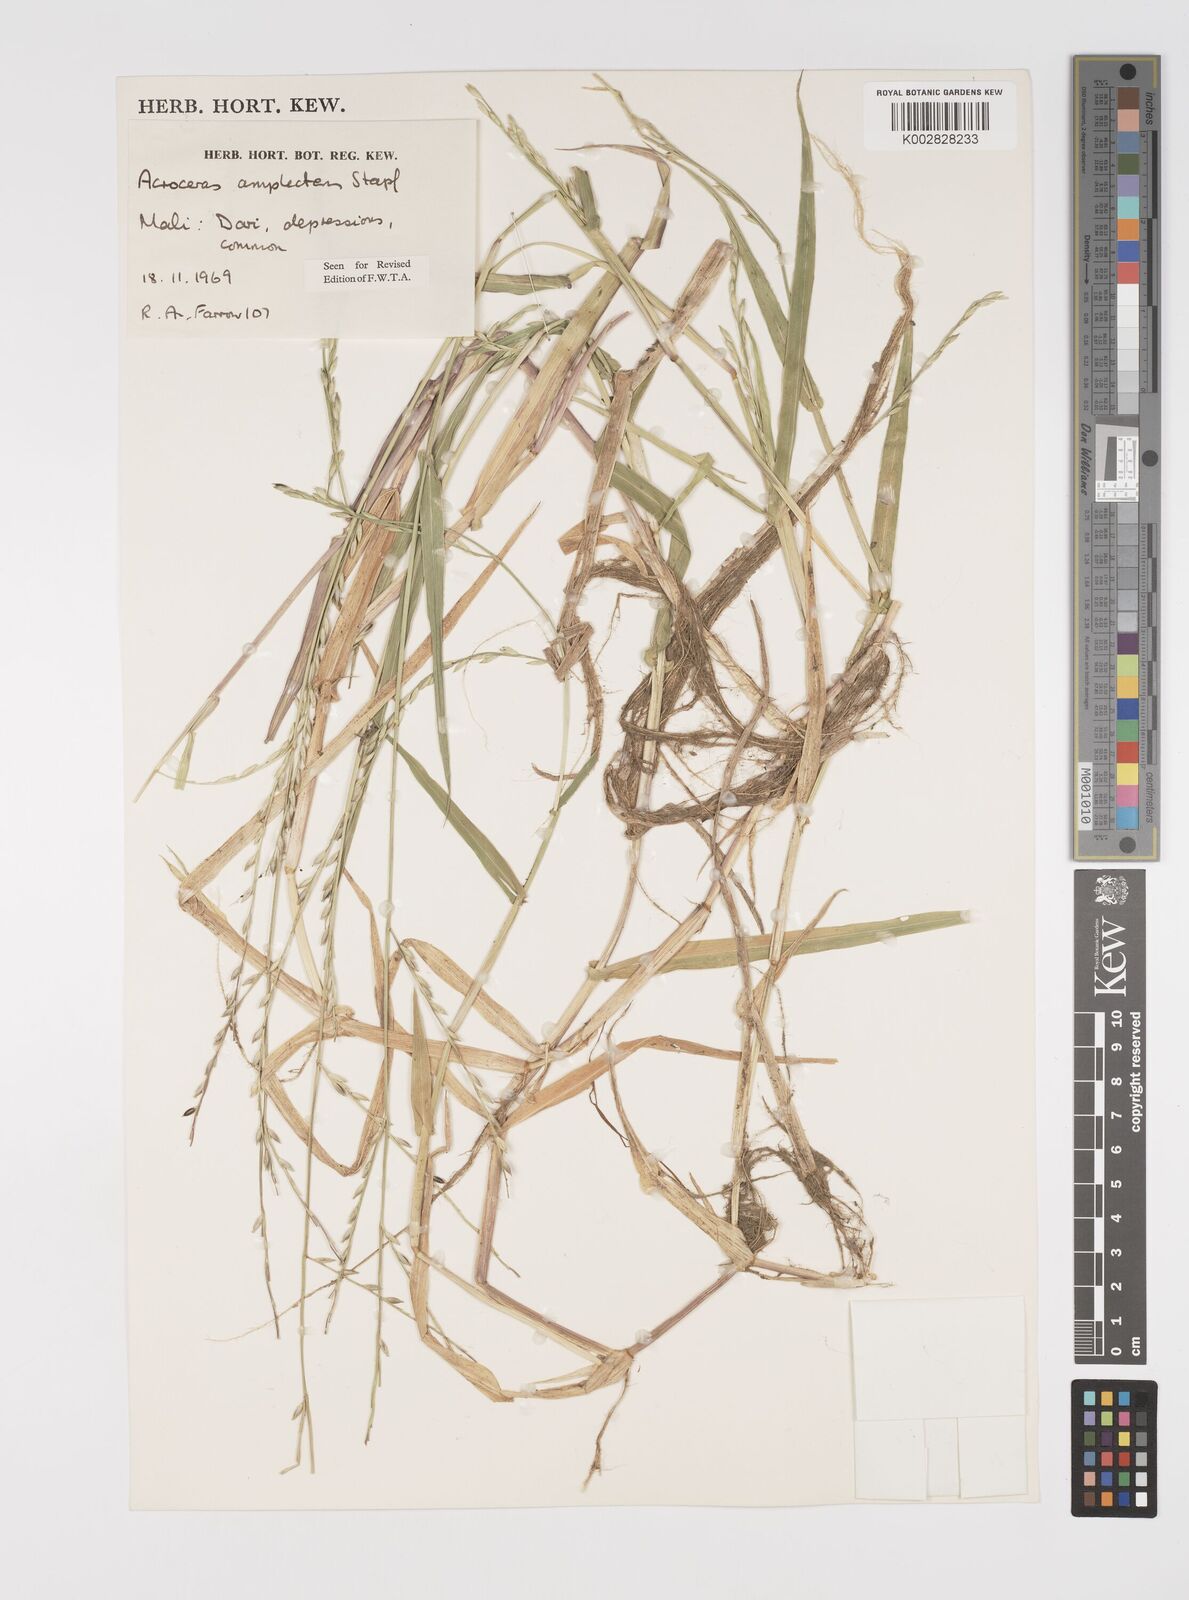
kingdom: Plantae
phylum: Tracheophyta
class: Liliopsida
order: Poales
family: Poaceae
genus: Acroceras
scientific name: Acroceras amplectens
